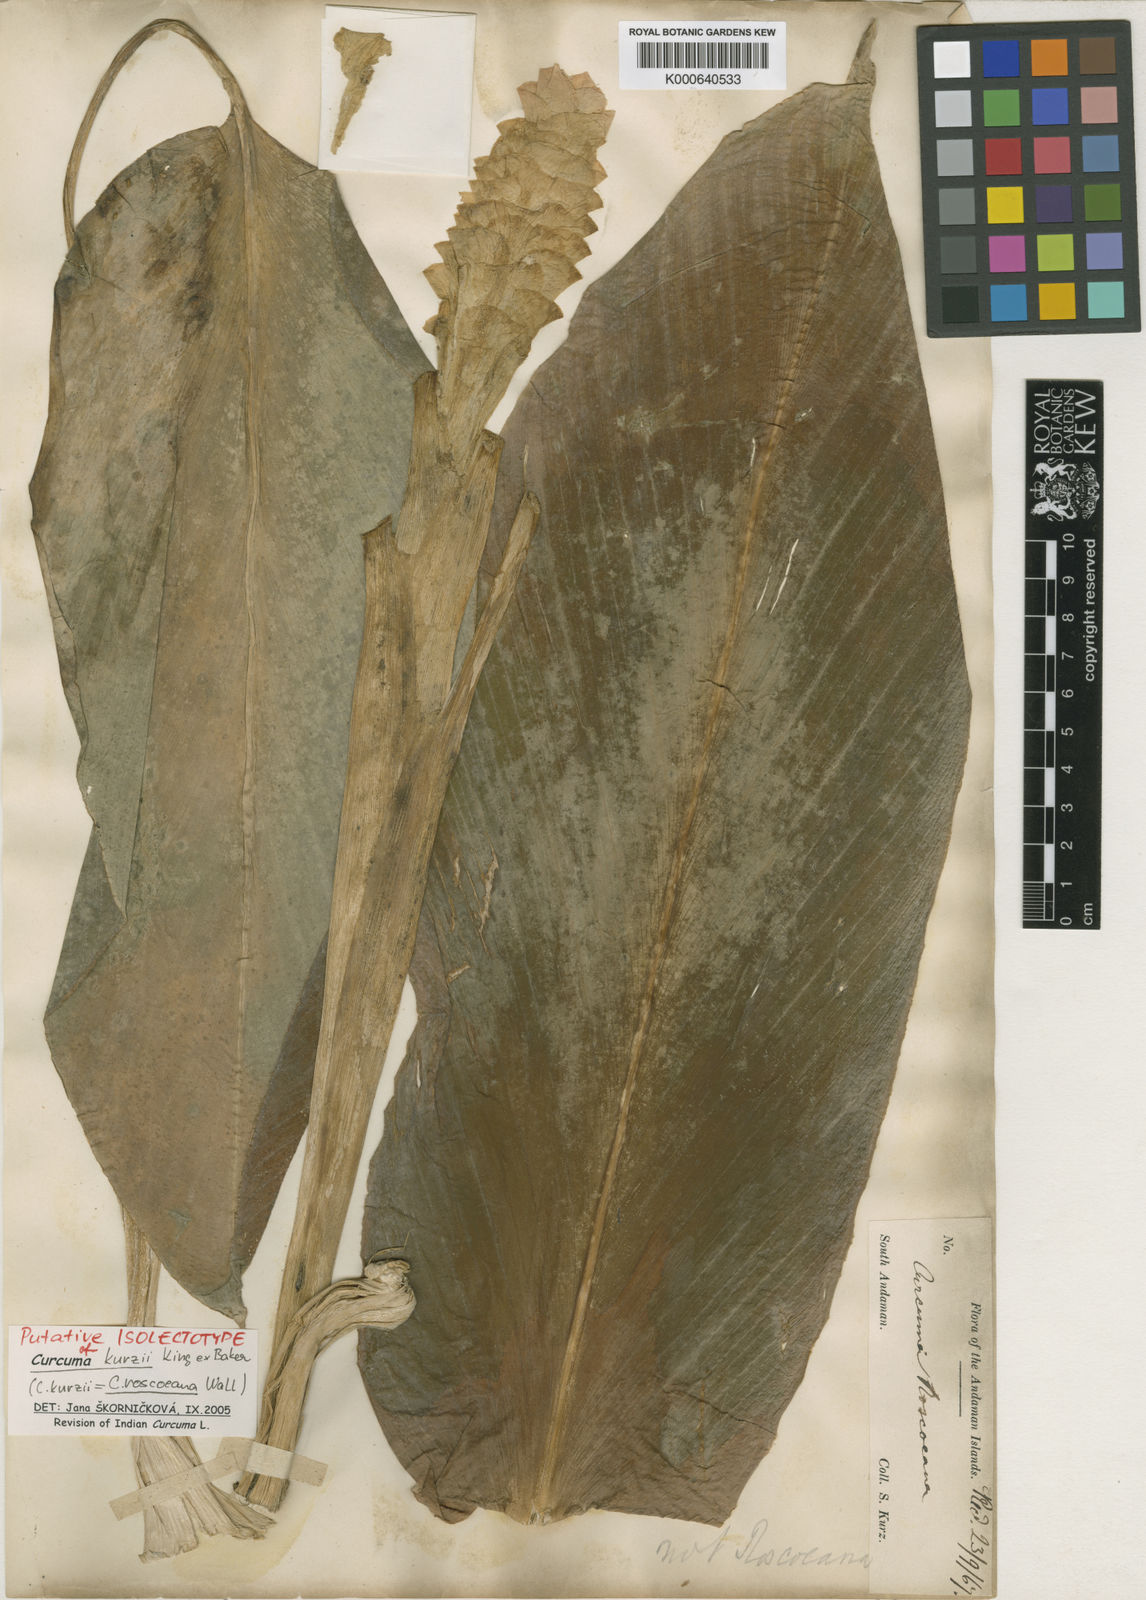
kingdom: Plantae
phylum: Tracheophyta
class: Liliopsida
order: Zingiberales
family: Zingiberaceae
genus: Curcuma
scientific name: Curcuma roscoeana
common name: Jewel of burma
